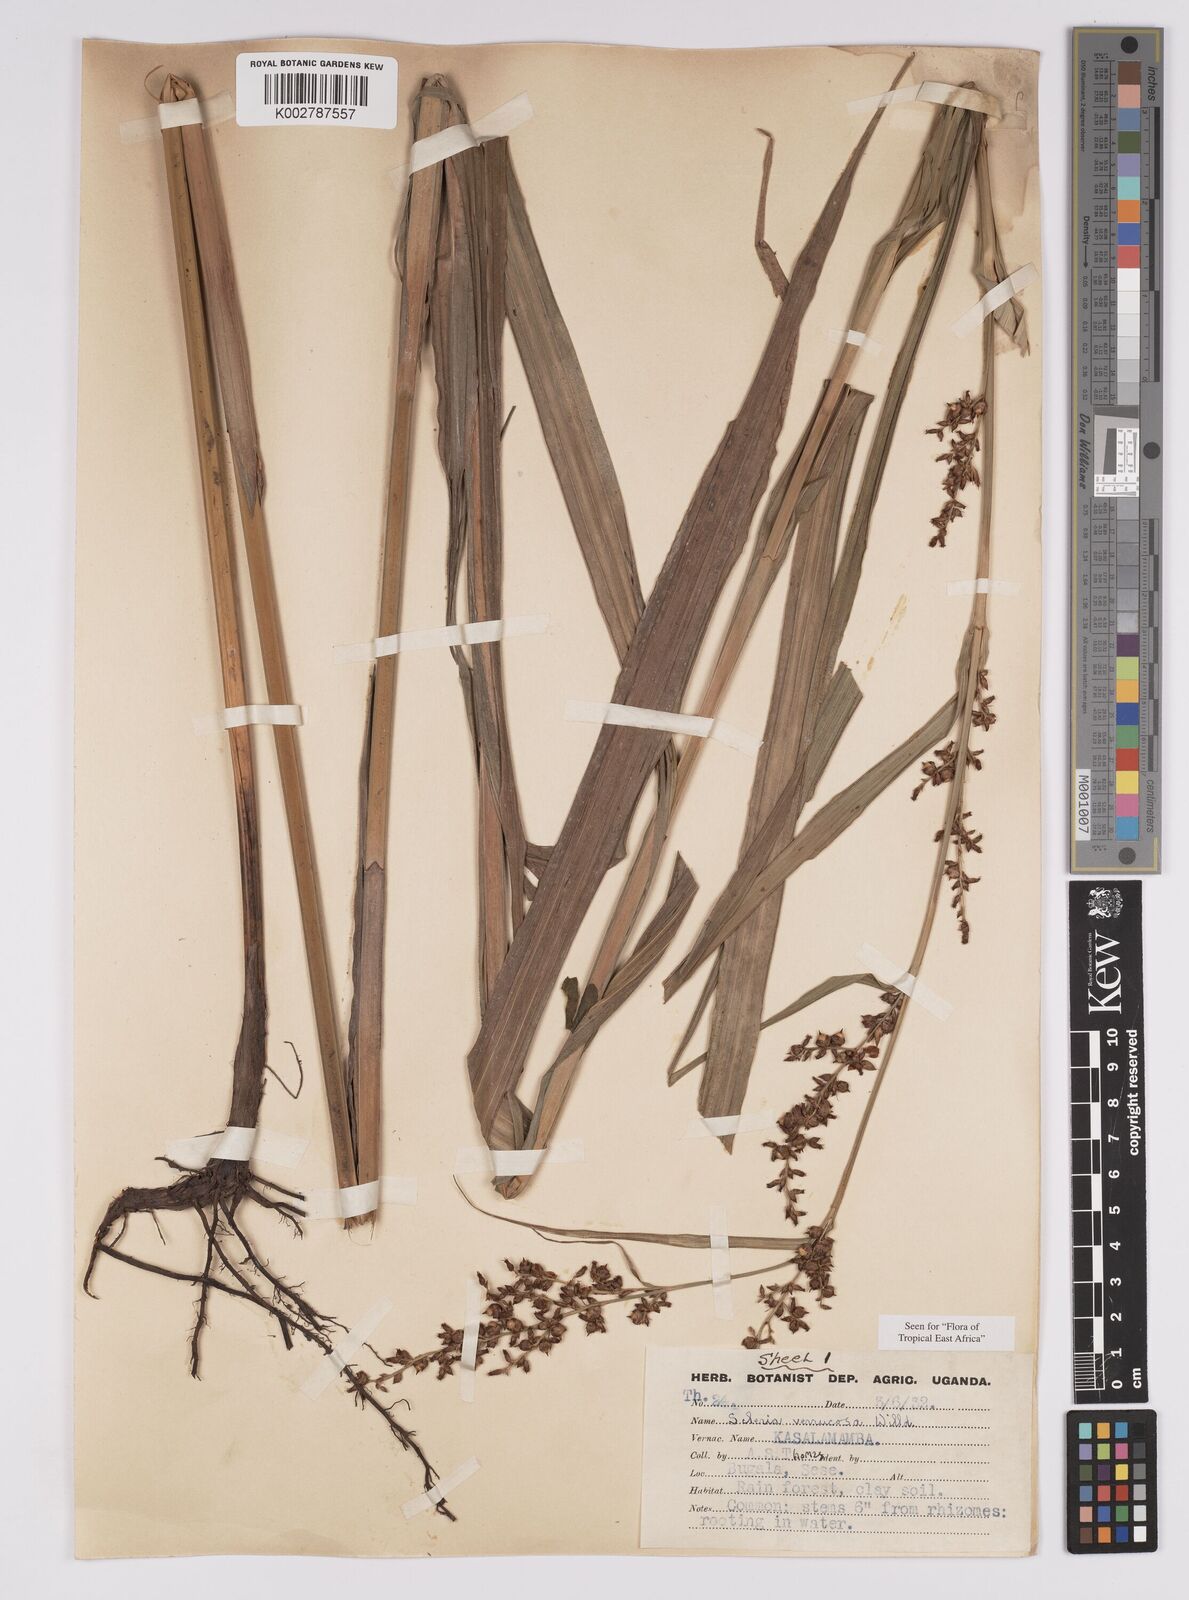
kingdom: Plantae
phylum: Tracheophyta
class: Liliopsida
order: Poales
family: Cyperaceae
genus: Scleria
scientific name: Scleria verrucosa
